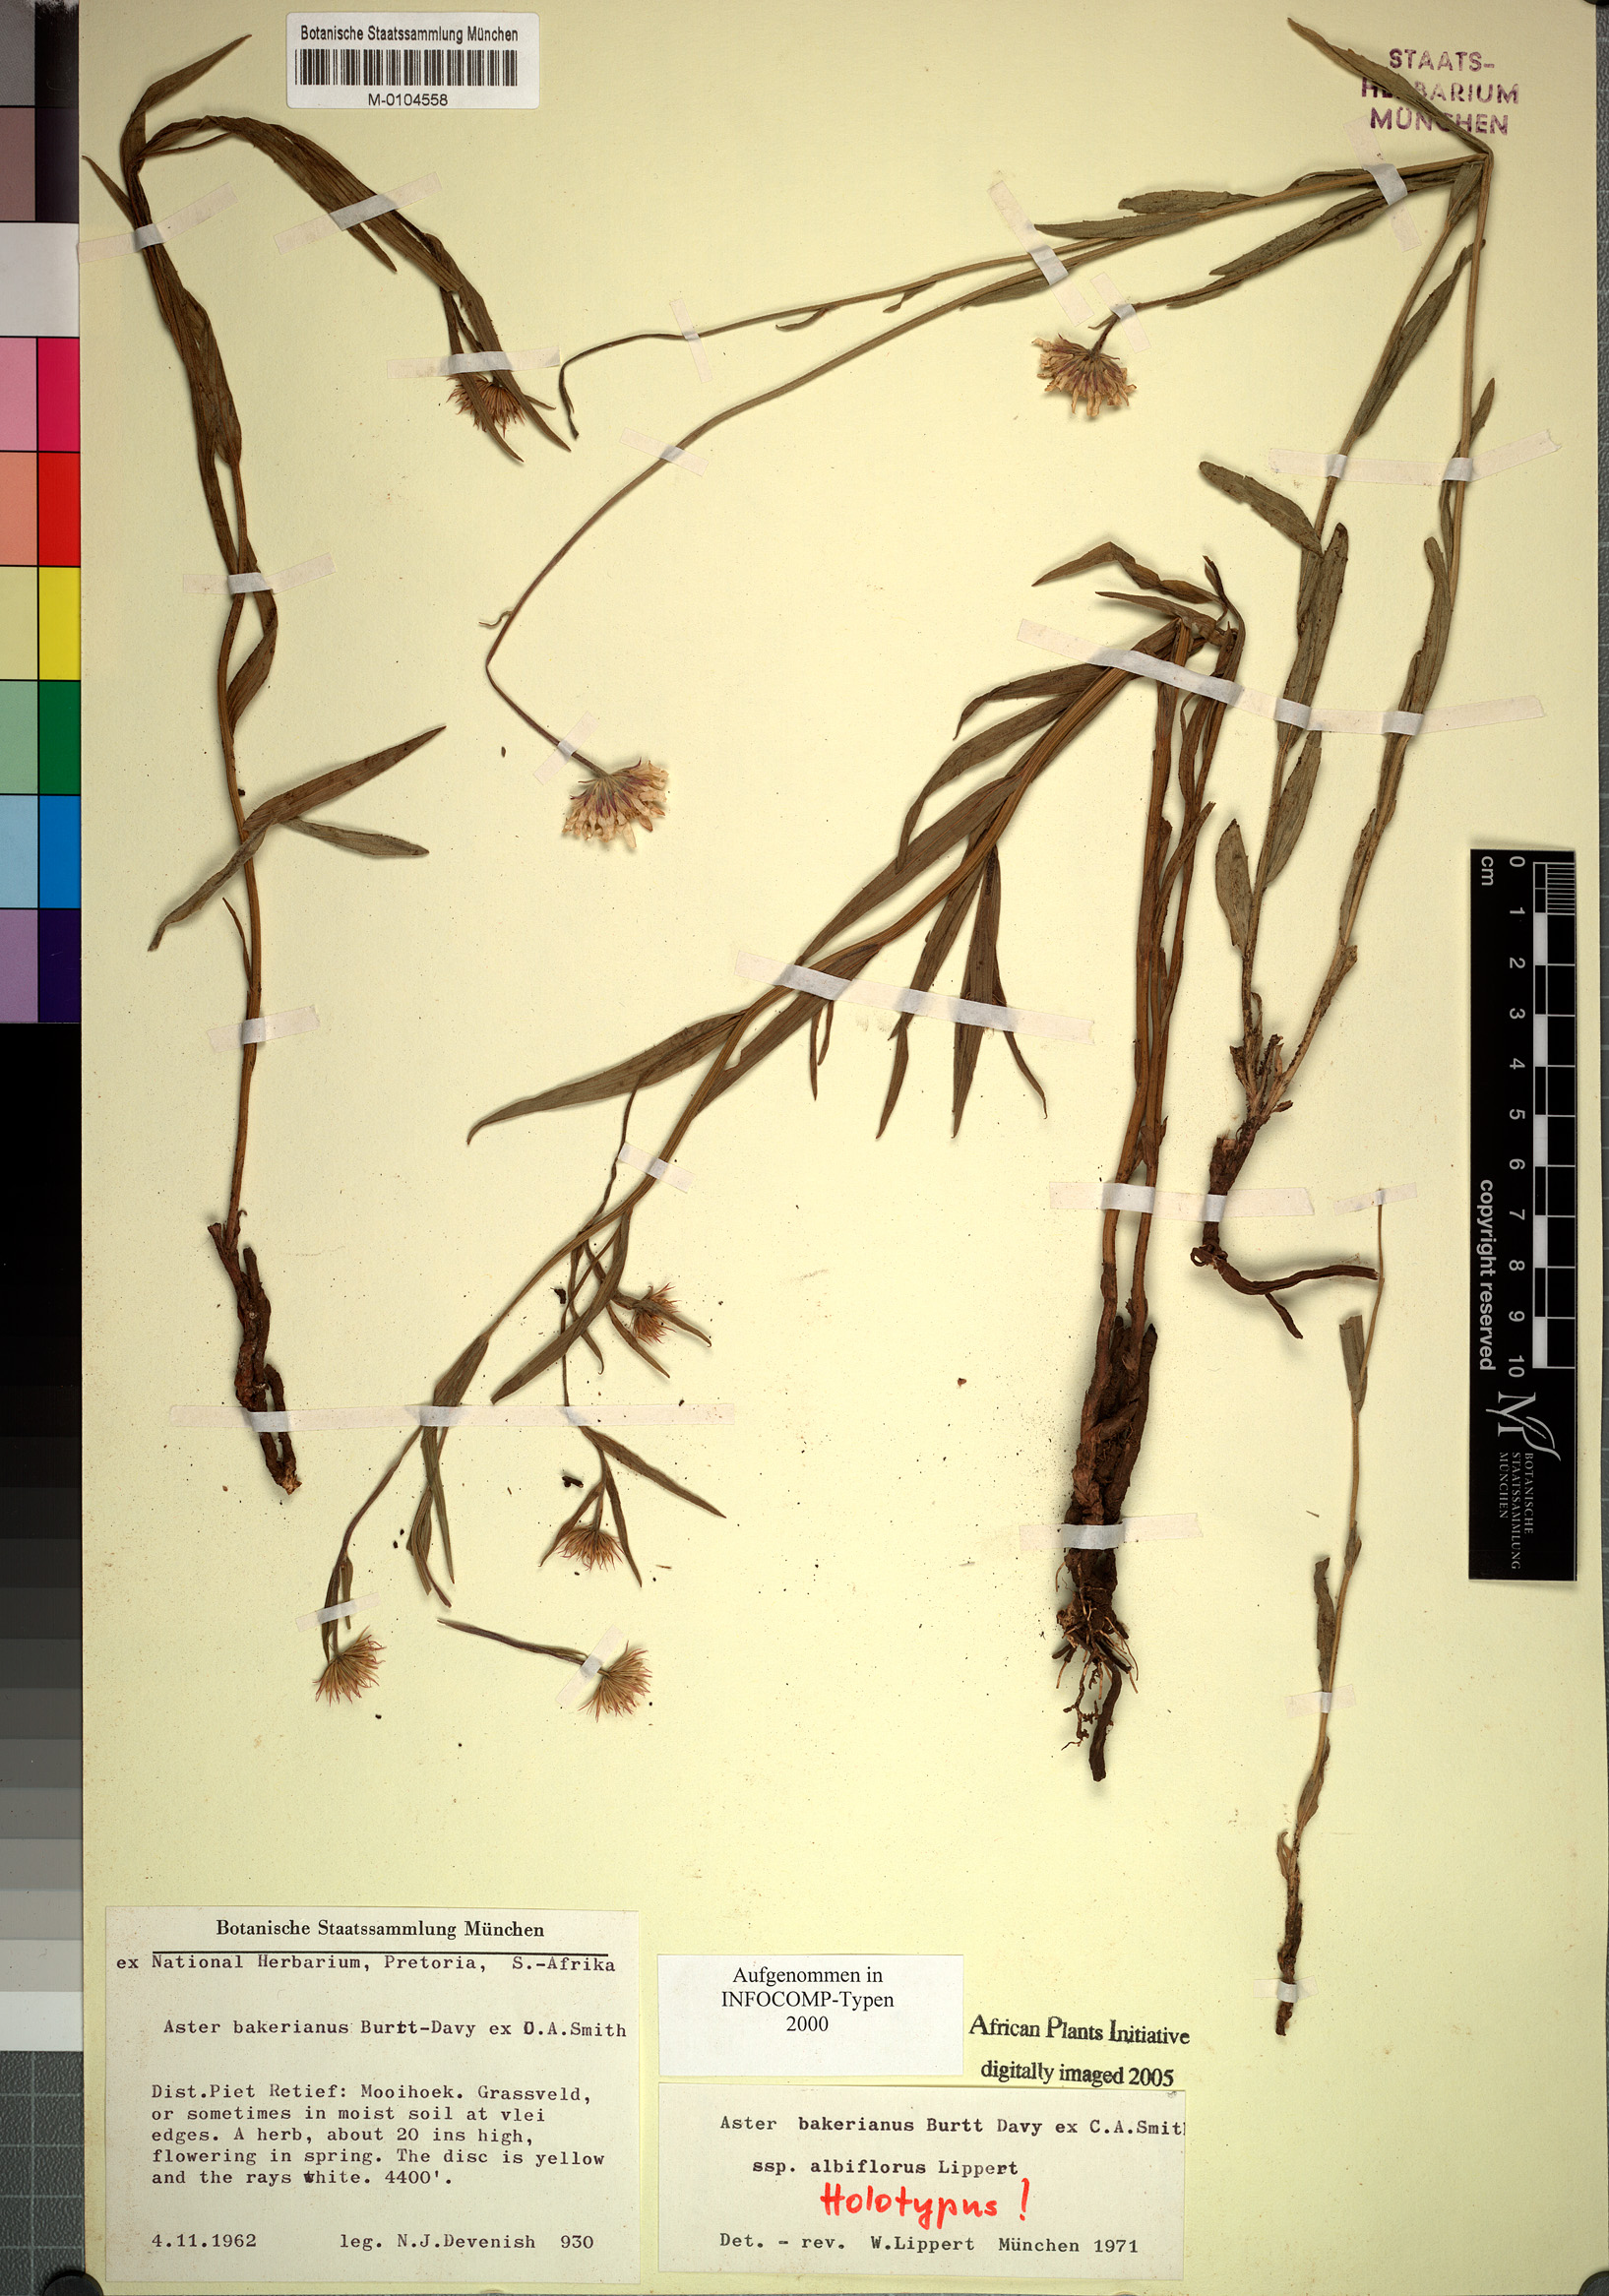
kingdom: Plantae
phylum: Tracheophyta
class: Magnoliopsida
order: Asterales
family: Asteraceae
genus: Afroaster
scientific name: Afroaster hispidus
